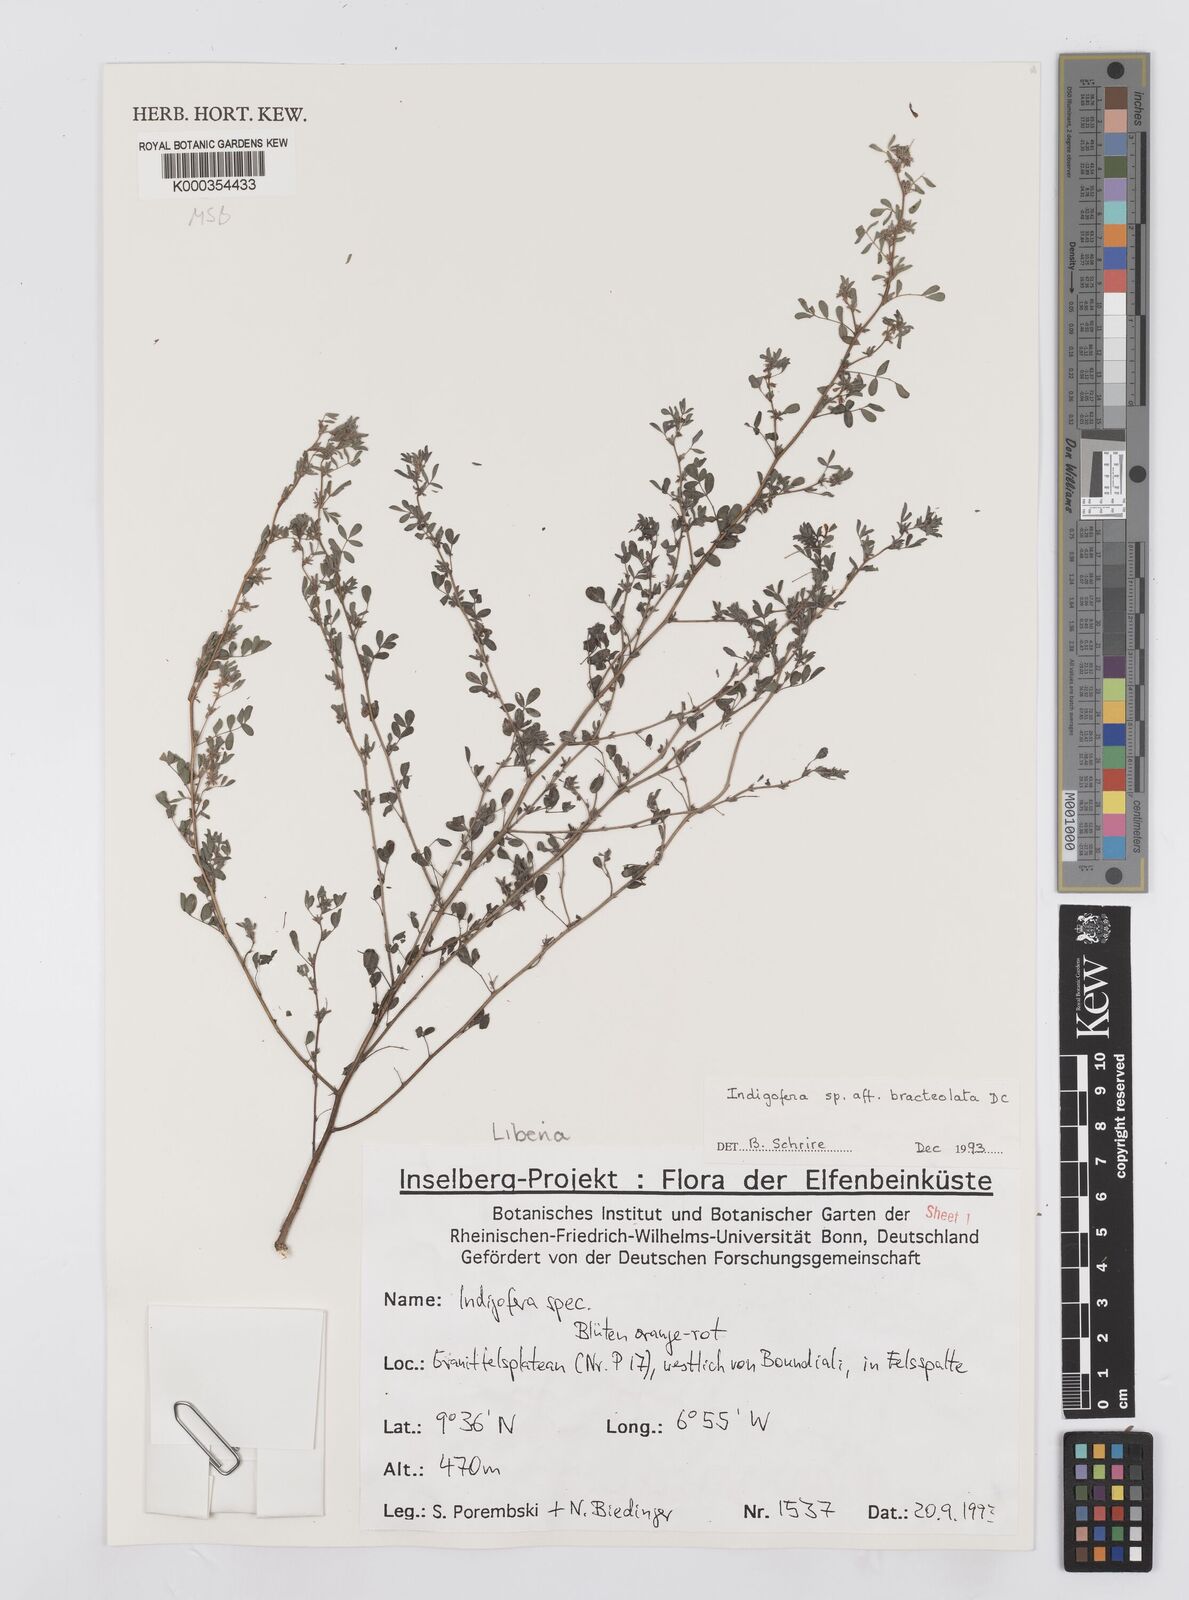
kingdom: Plantae
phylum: Tracheophyta
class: Magnoliopsida
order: Fabales
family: Fabaceae
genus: Indigofera
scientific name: Indigofera bracteolata
